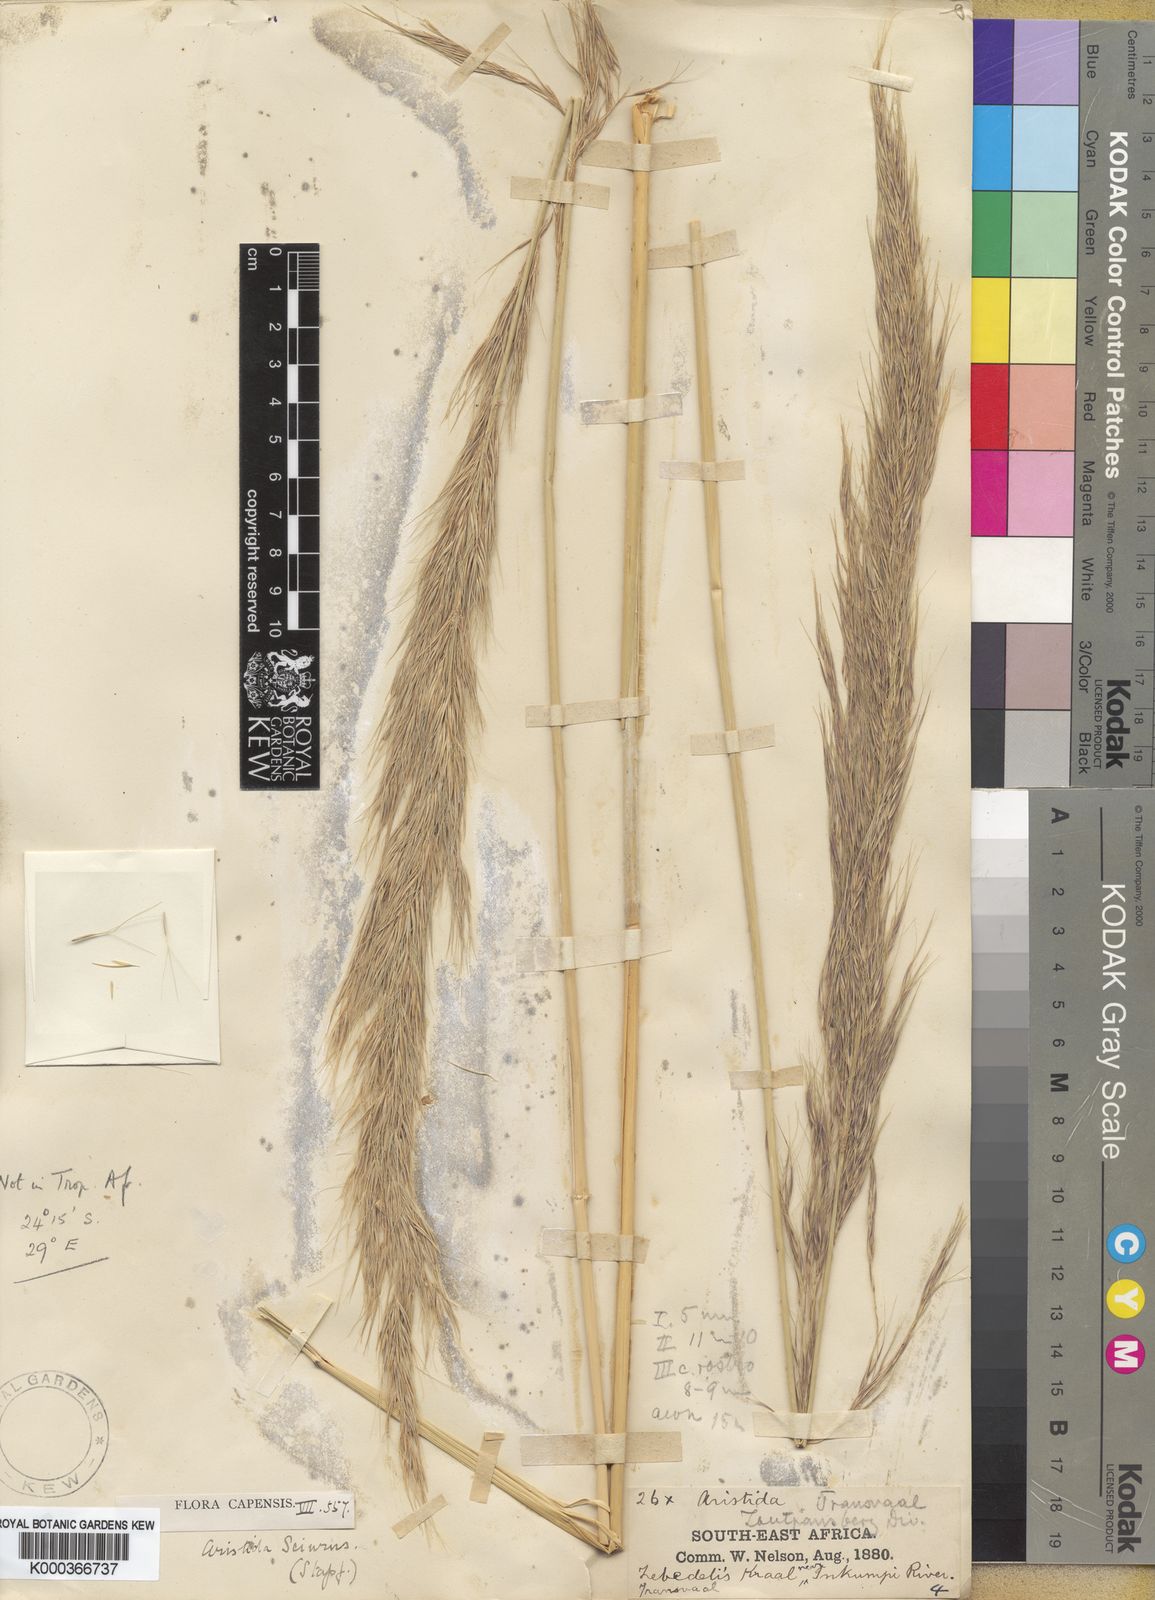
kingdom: Plantae
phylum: Tracheophyta
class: Liliopsida
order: Poales
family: Poaceae
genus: Aristida
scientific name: Aristida sciurus
